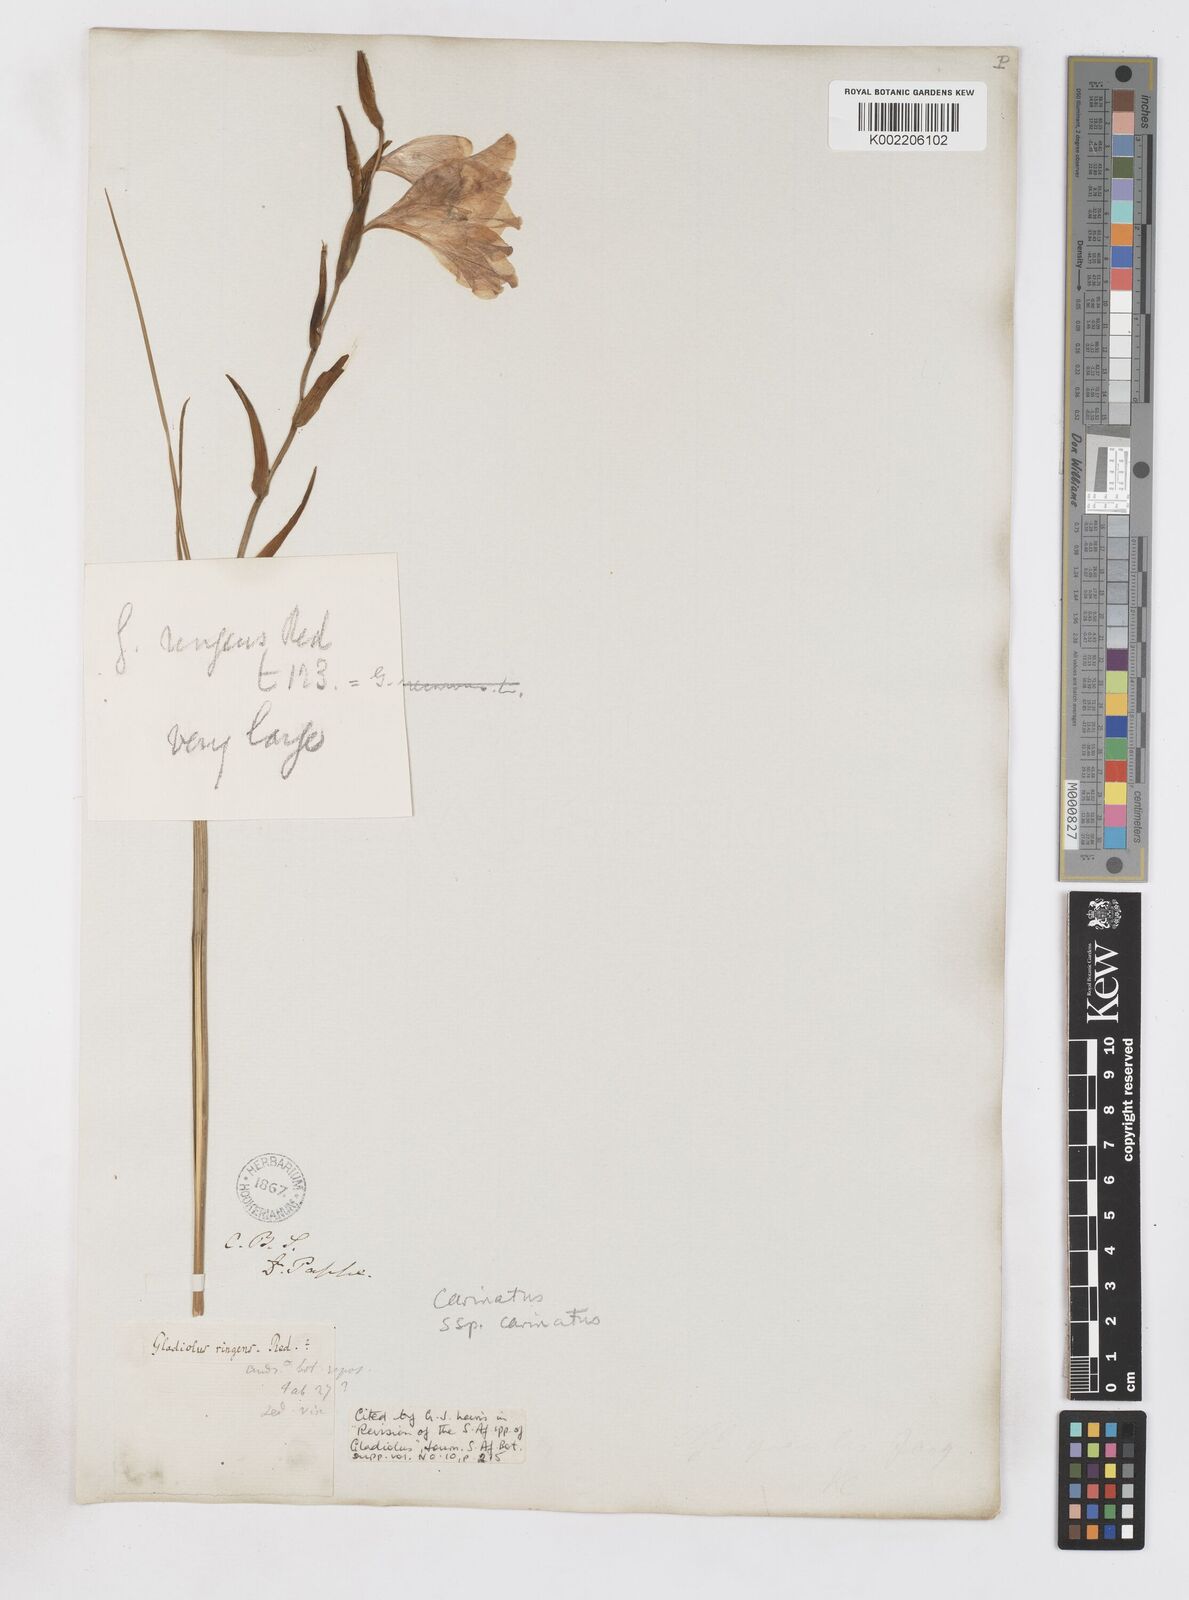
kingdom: Plantae
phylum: Tracheophyta
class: Liliopsida
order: Asparagales
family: Iridaceae
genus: Gladiolus
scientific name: Gladiolus carinatus
